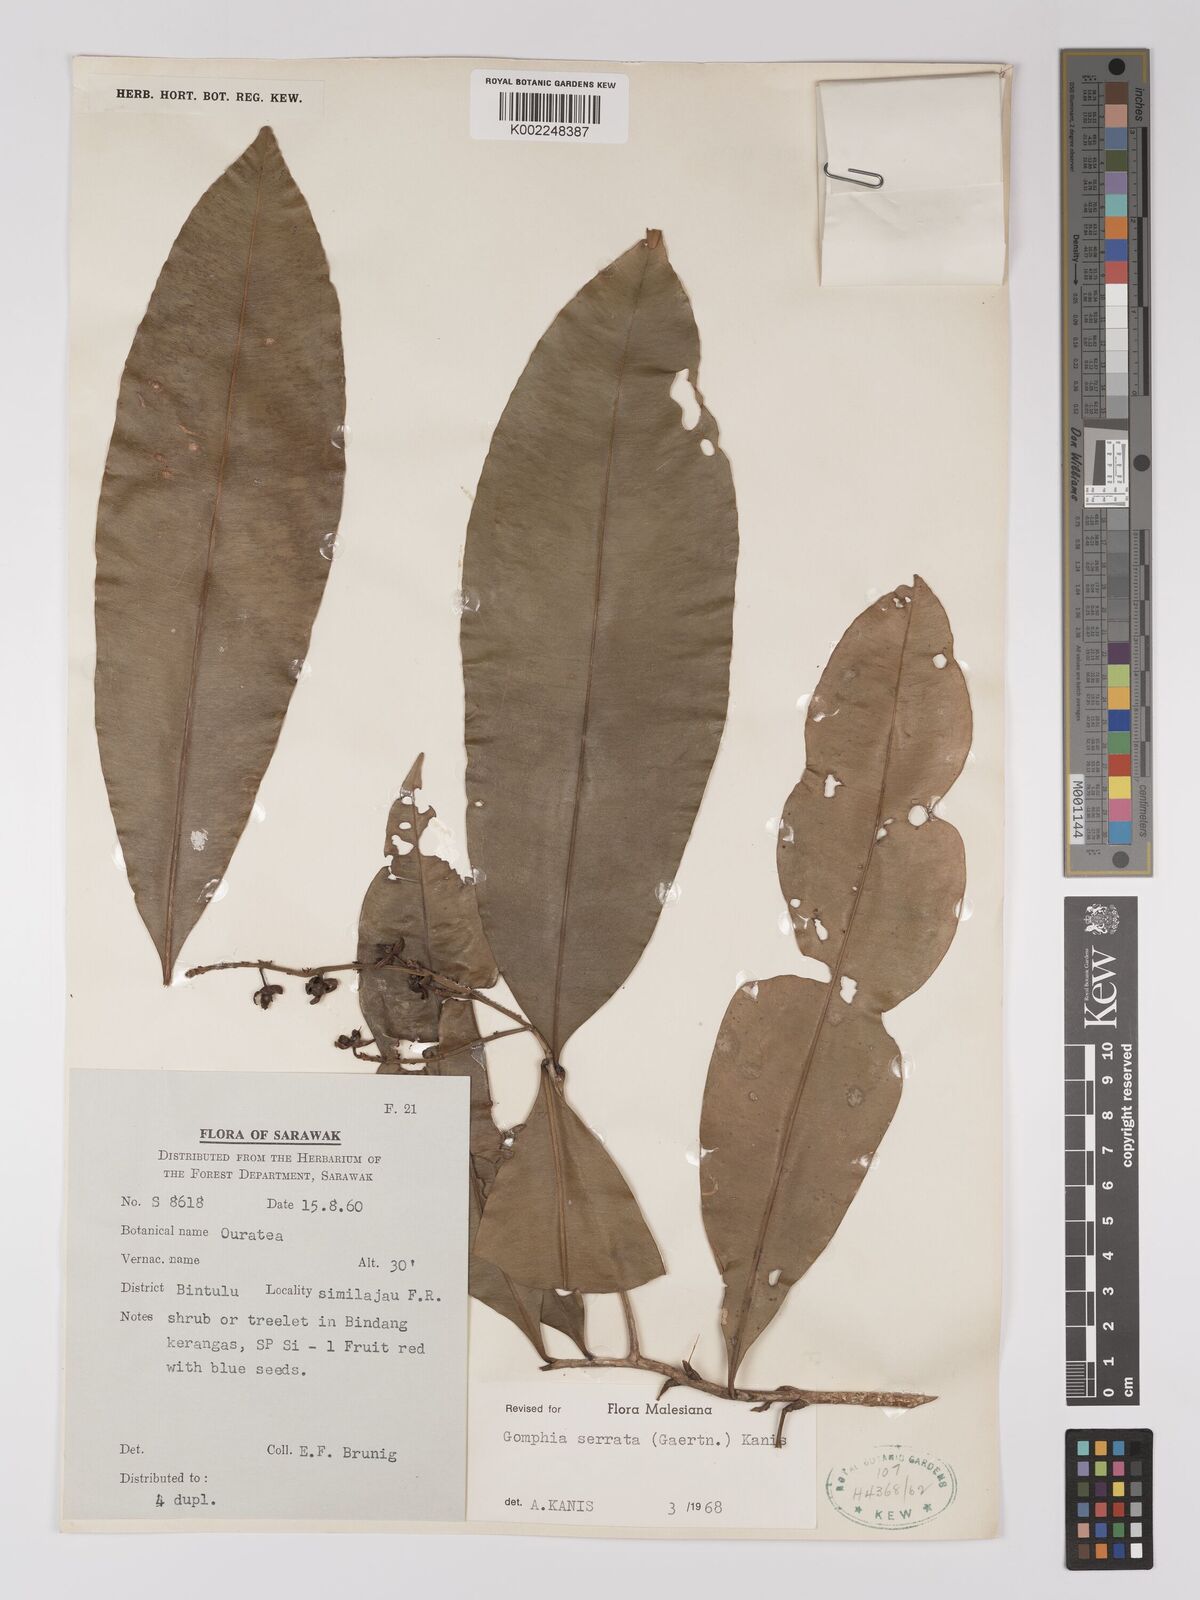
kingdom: Plantae
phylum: Tracheophyta
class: Magnoliopsida
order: Malpighiales
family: Ochnaceae
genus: Gomphia
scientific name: Gomphia serrata
